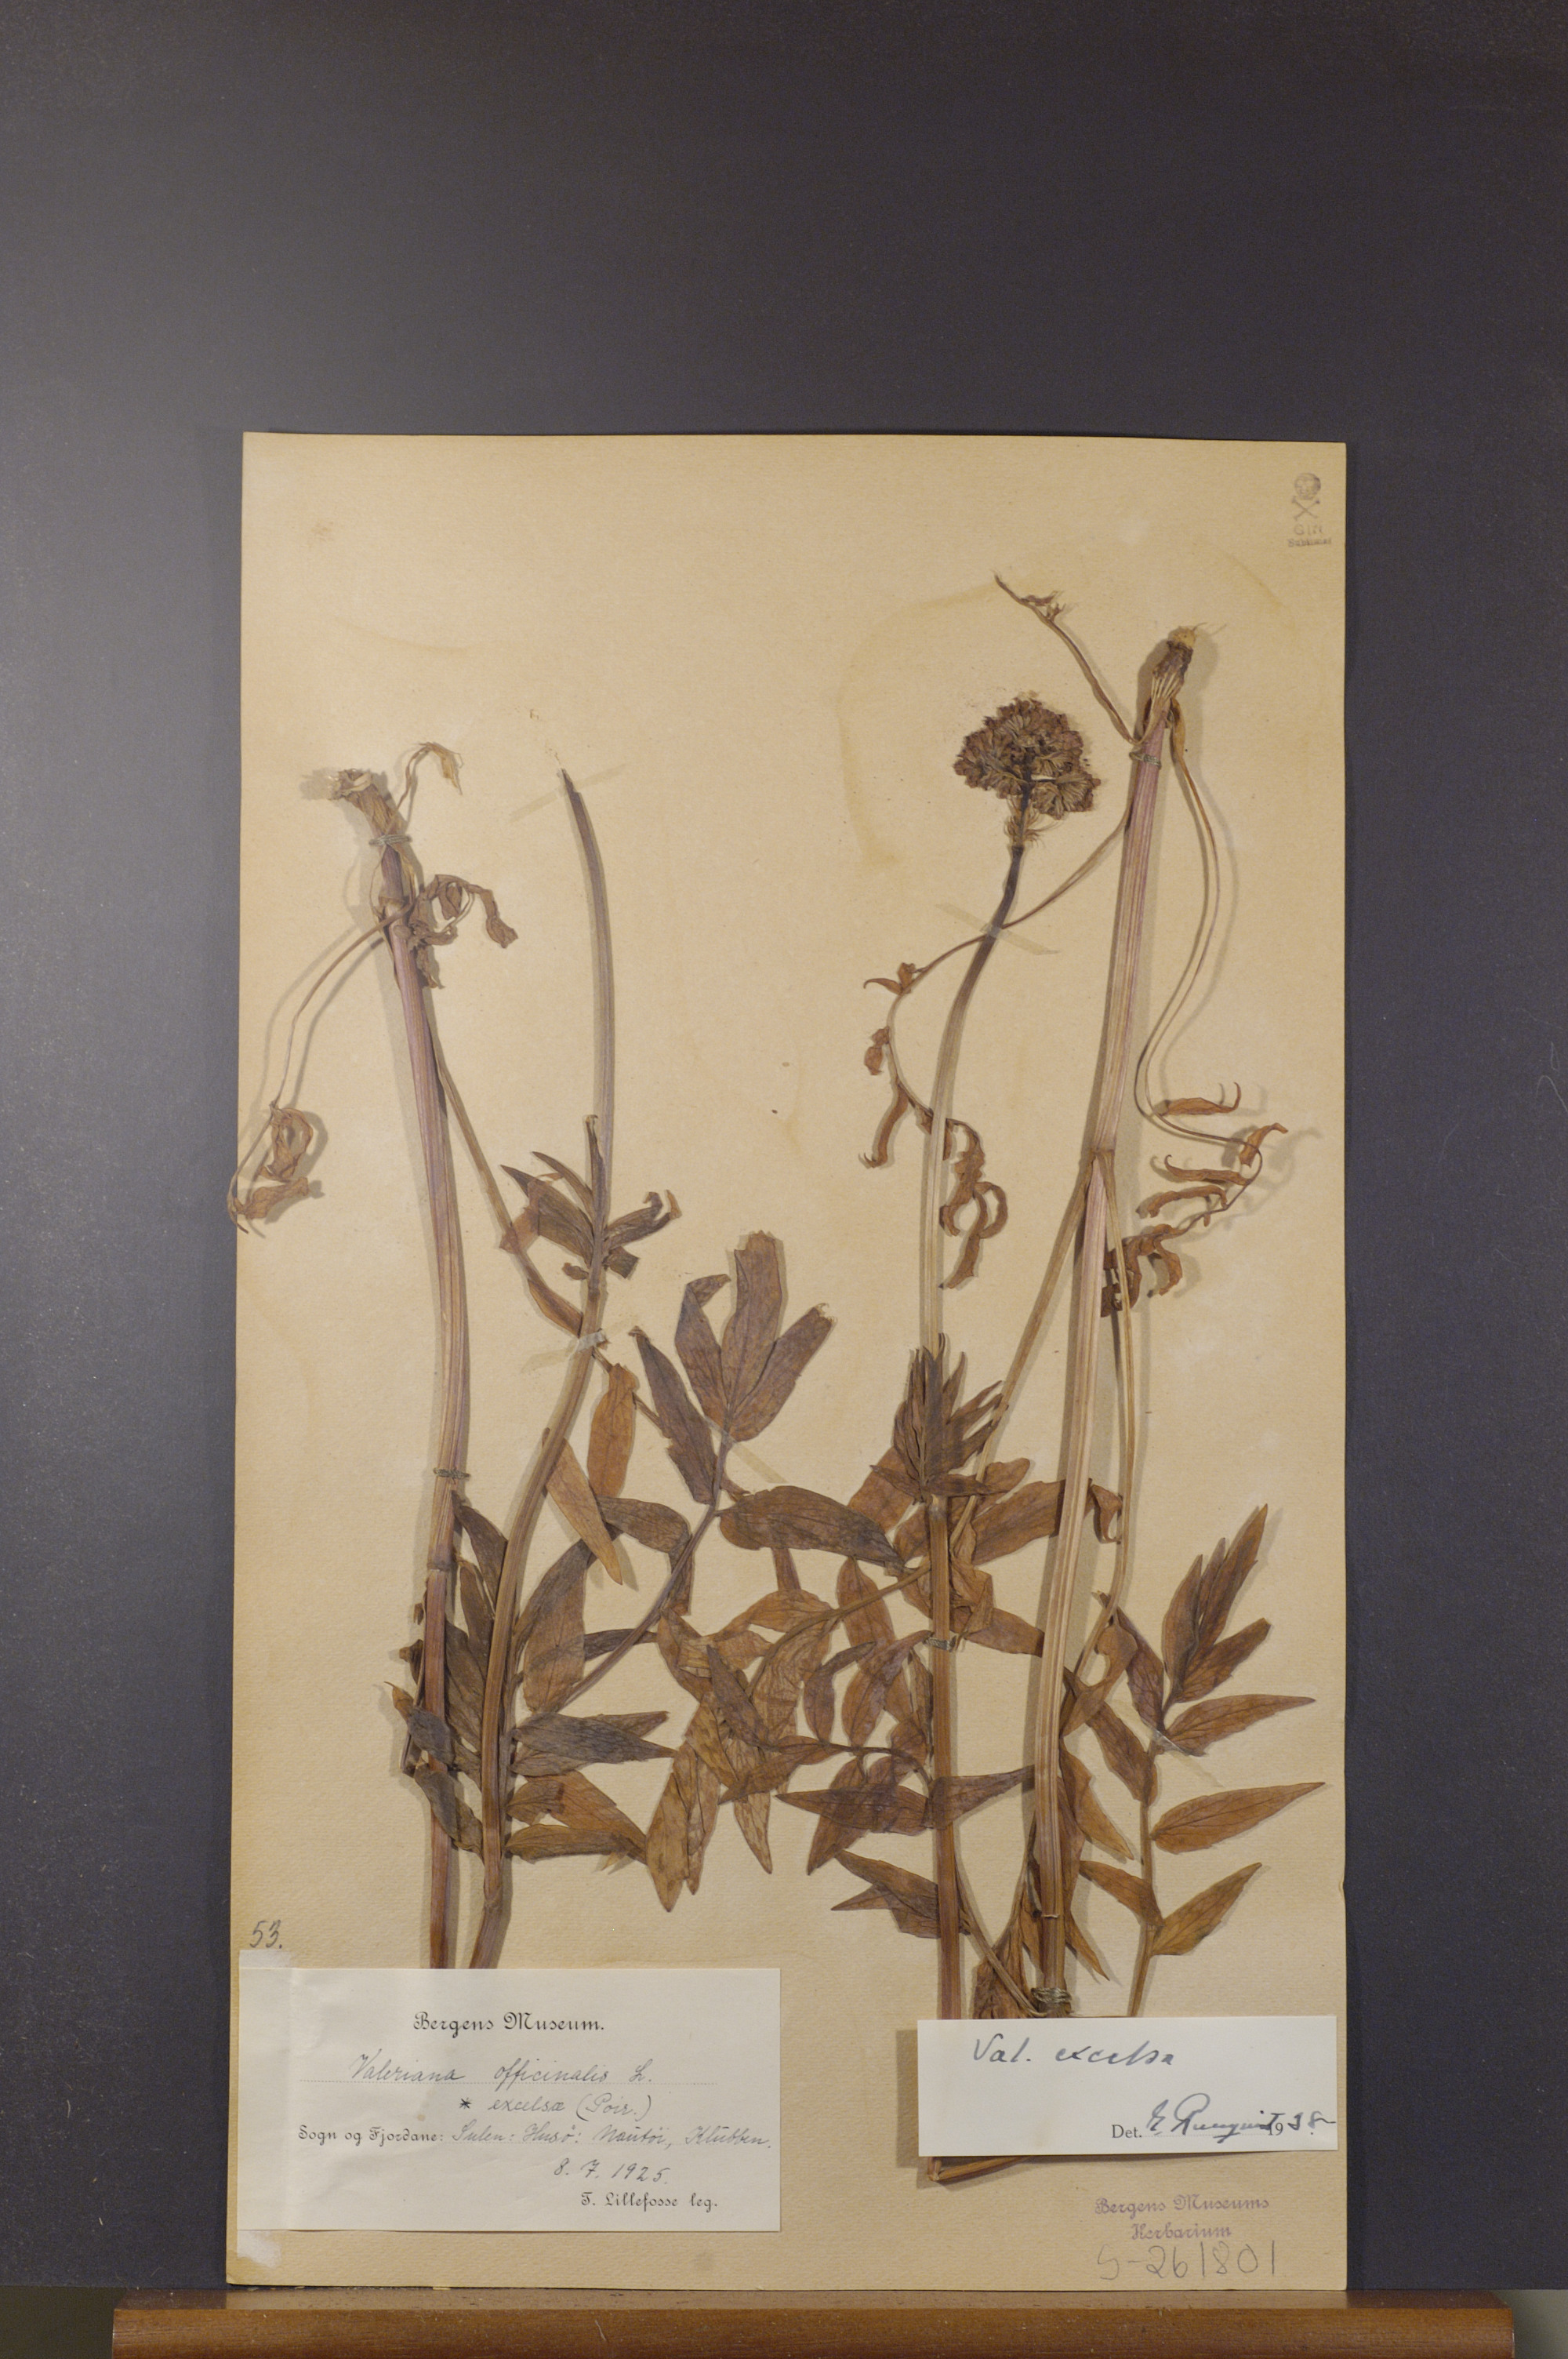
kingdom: Plantae
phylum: Tracheophyta
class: Magnoliopsida
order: Dipsacales
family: Caprifoliaceae
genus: Valeriana
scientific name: Valeriana sambucifolia
